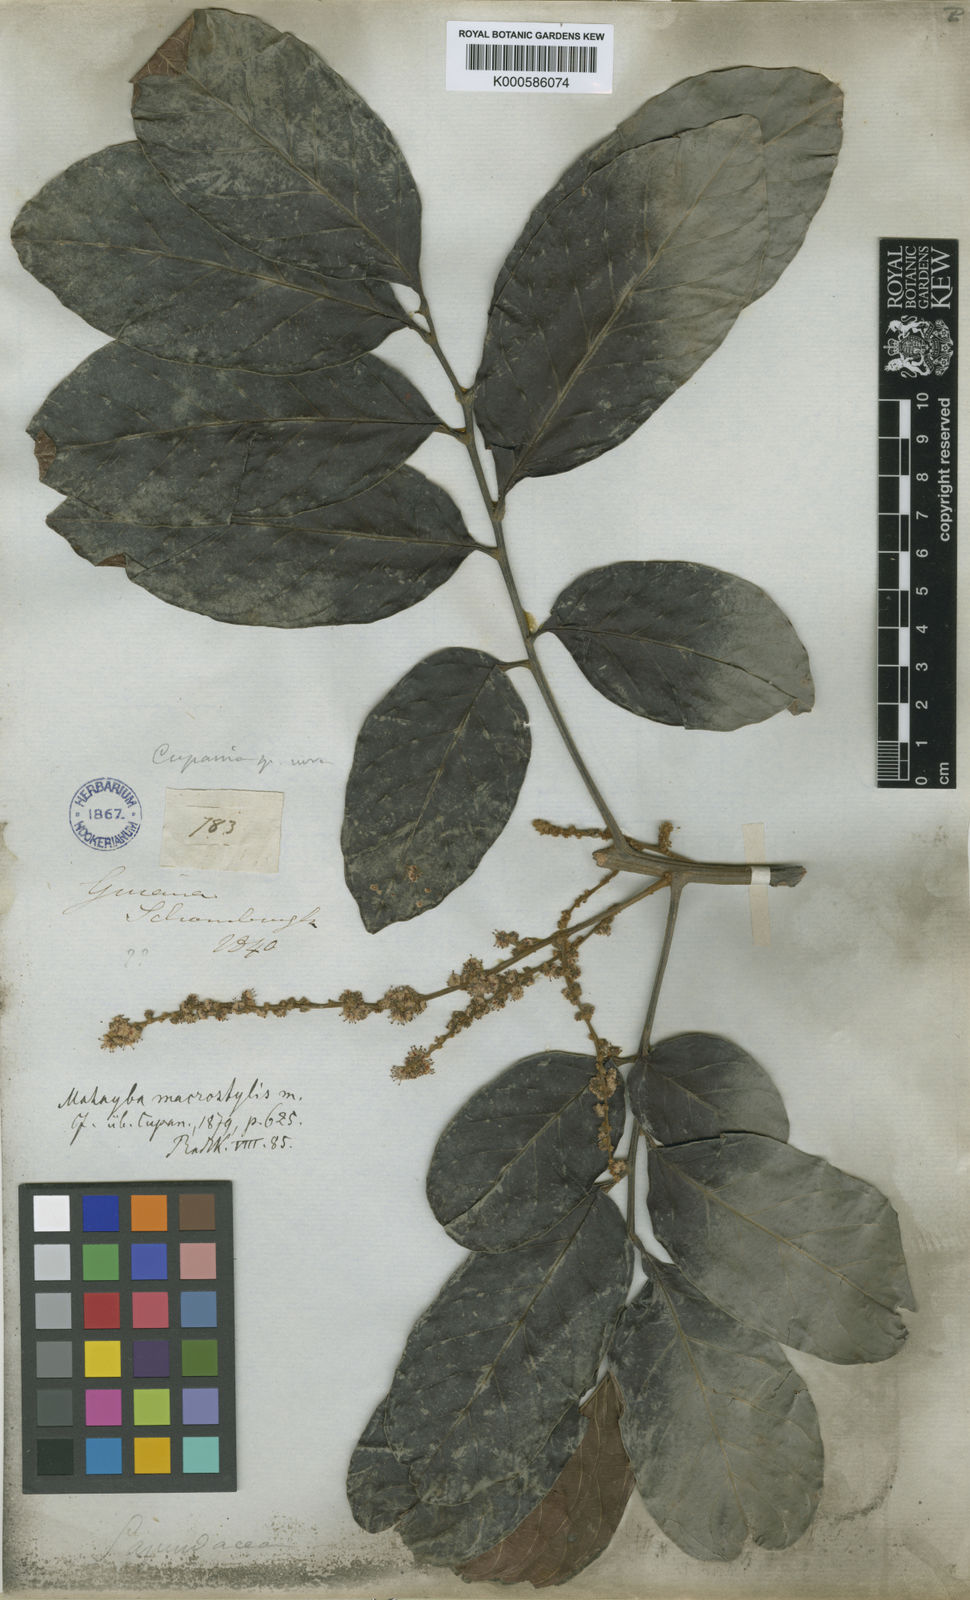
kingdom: Plantae
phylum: Tracheophyta
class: Magnoliopsida
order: Sapindales
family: Sapindaceae
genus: Cupania
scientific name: Cupania macrostylis
